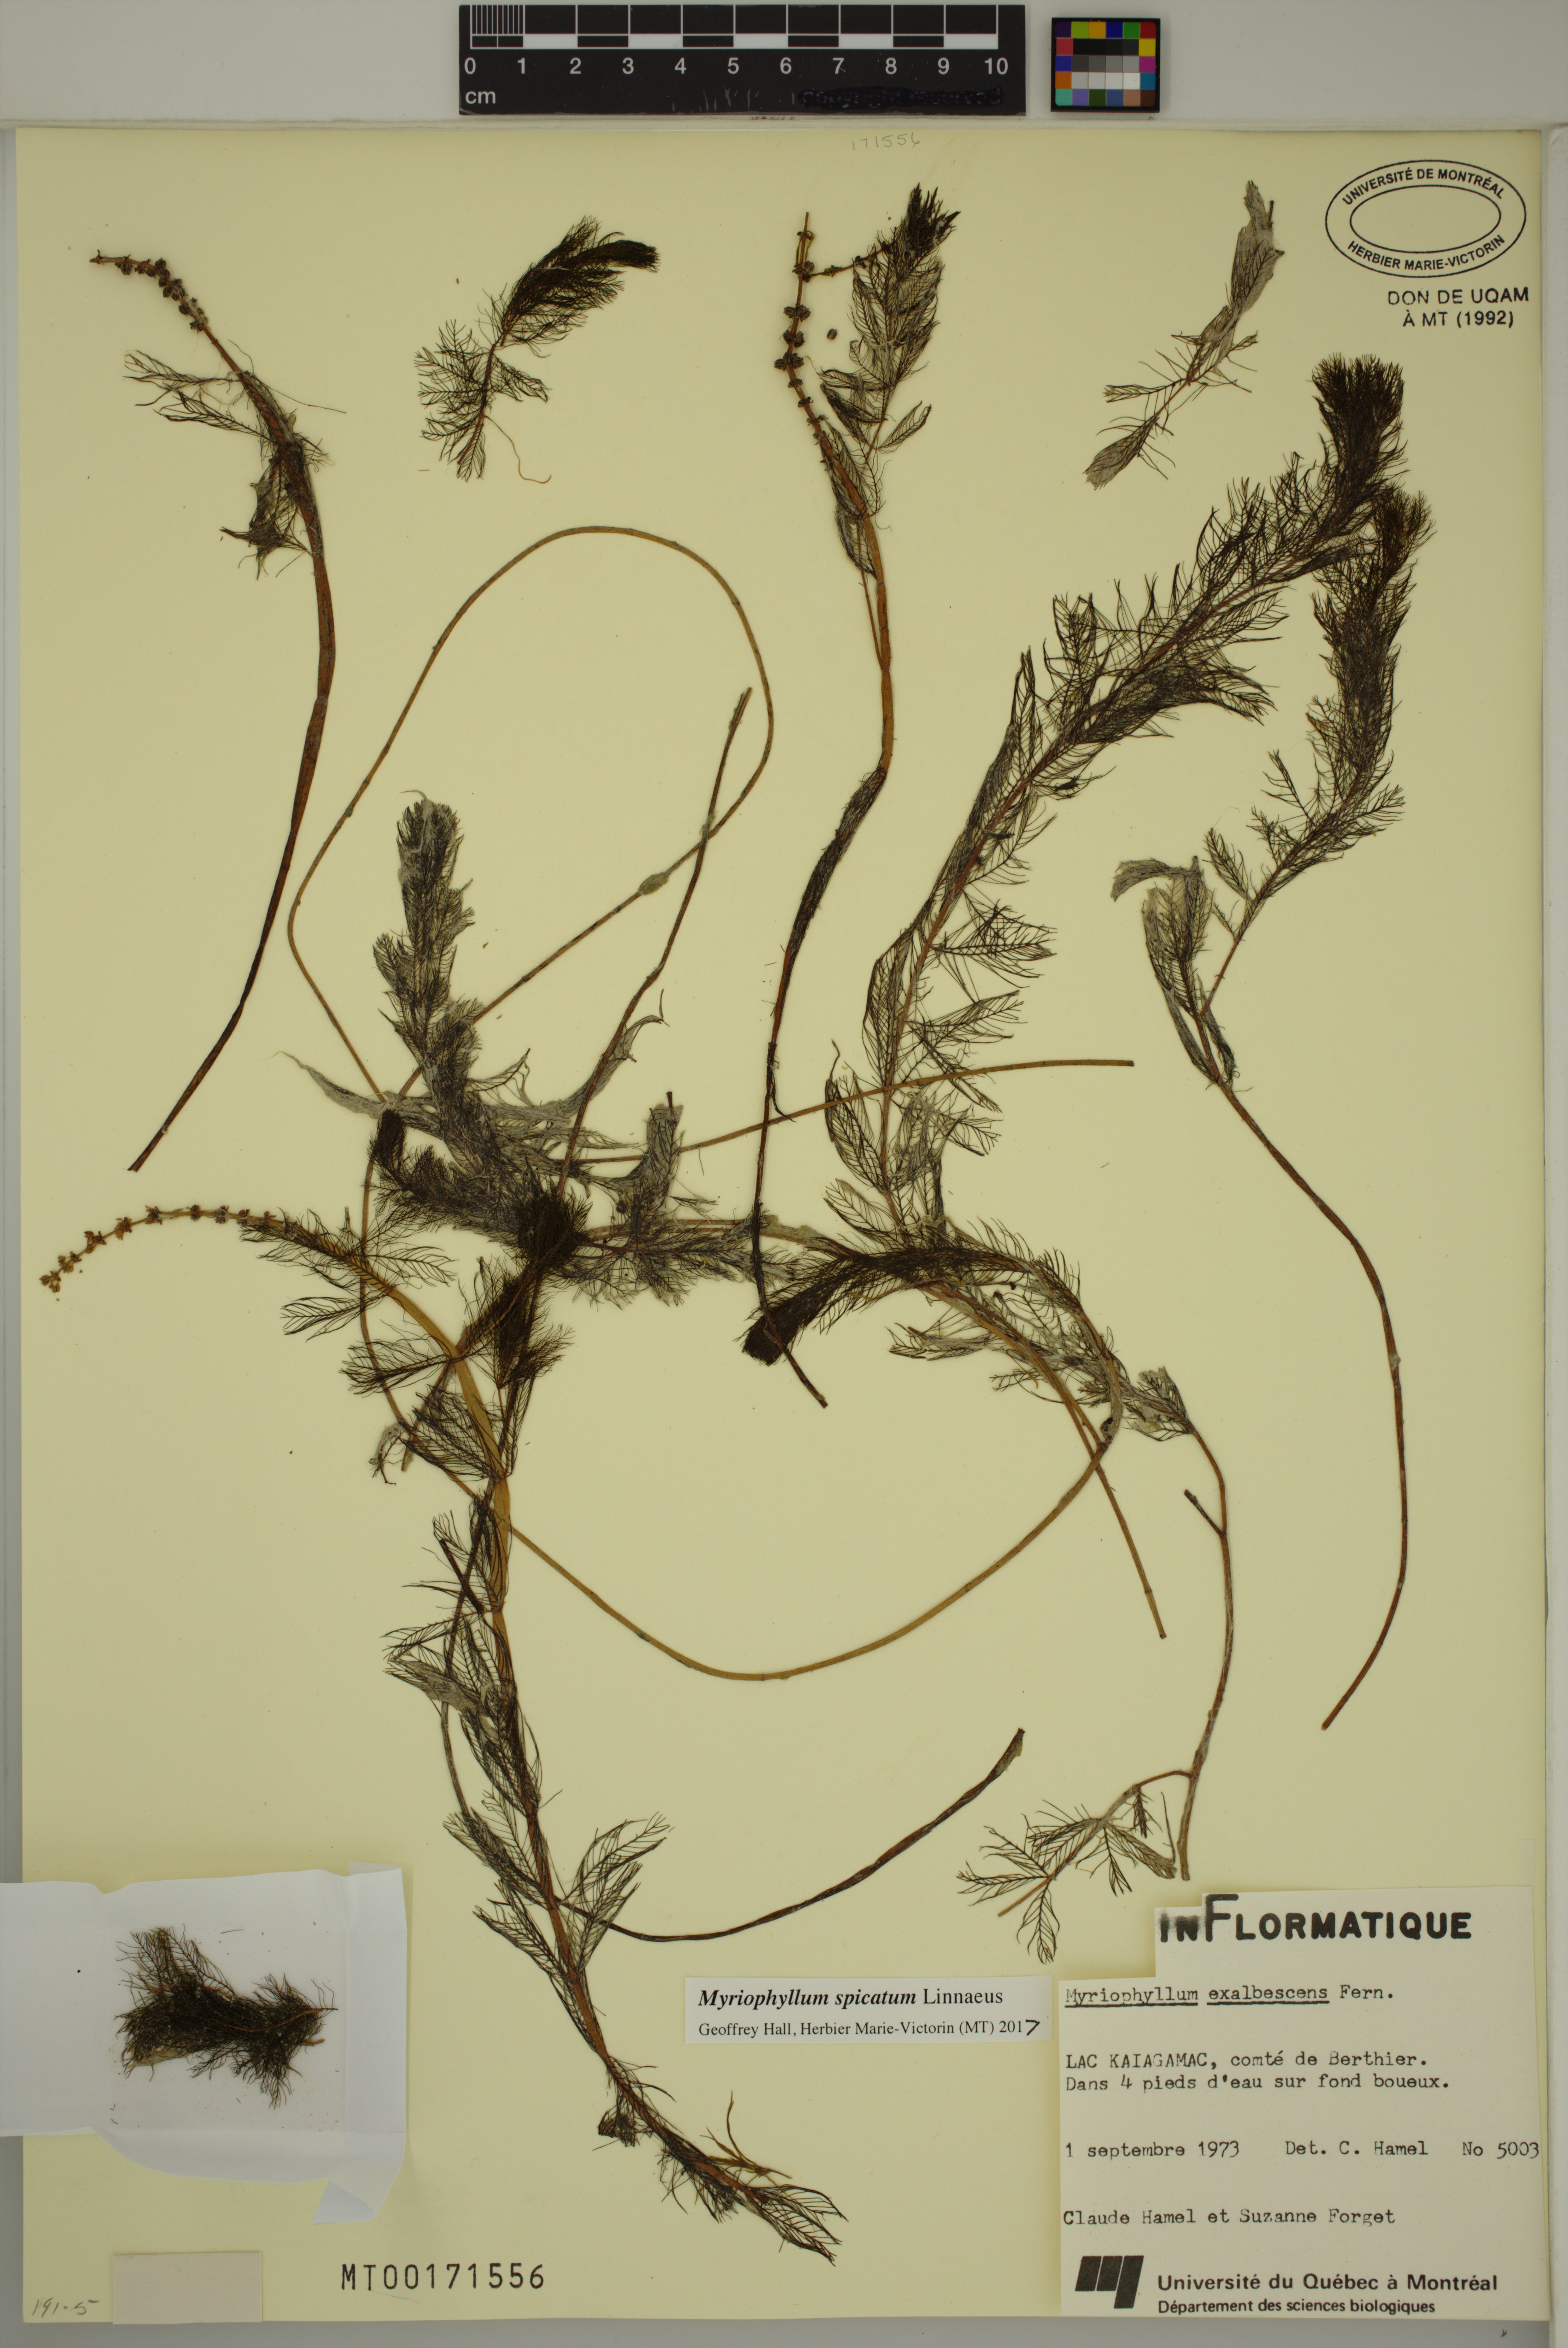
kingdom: Plantae
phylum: Tracheophyta
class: Magnoliopsida
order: Saxifragales
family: Haloragaceae
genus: Myriophyllum
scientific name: Myriophyllum spicatum
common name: Spiked water-milfoil
